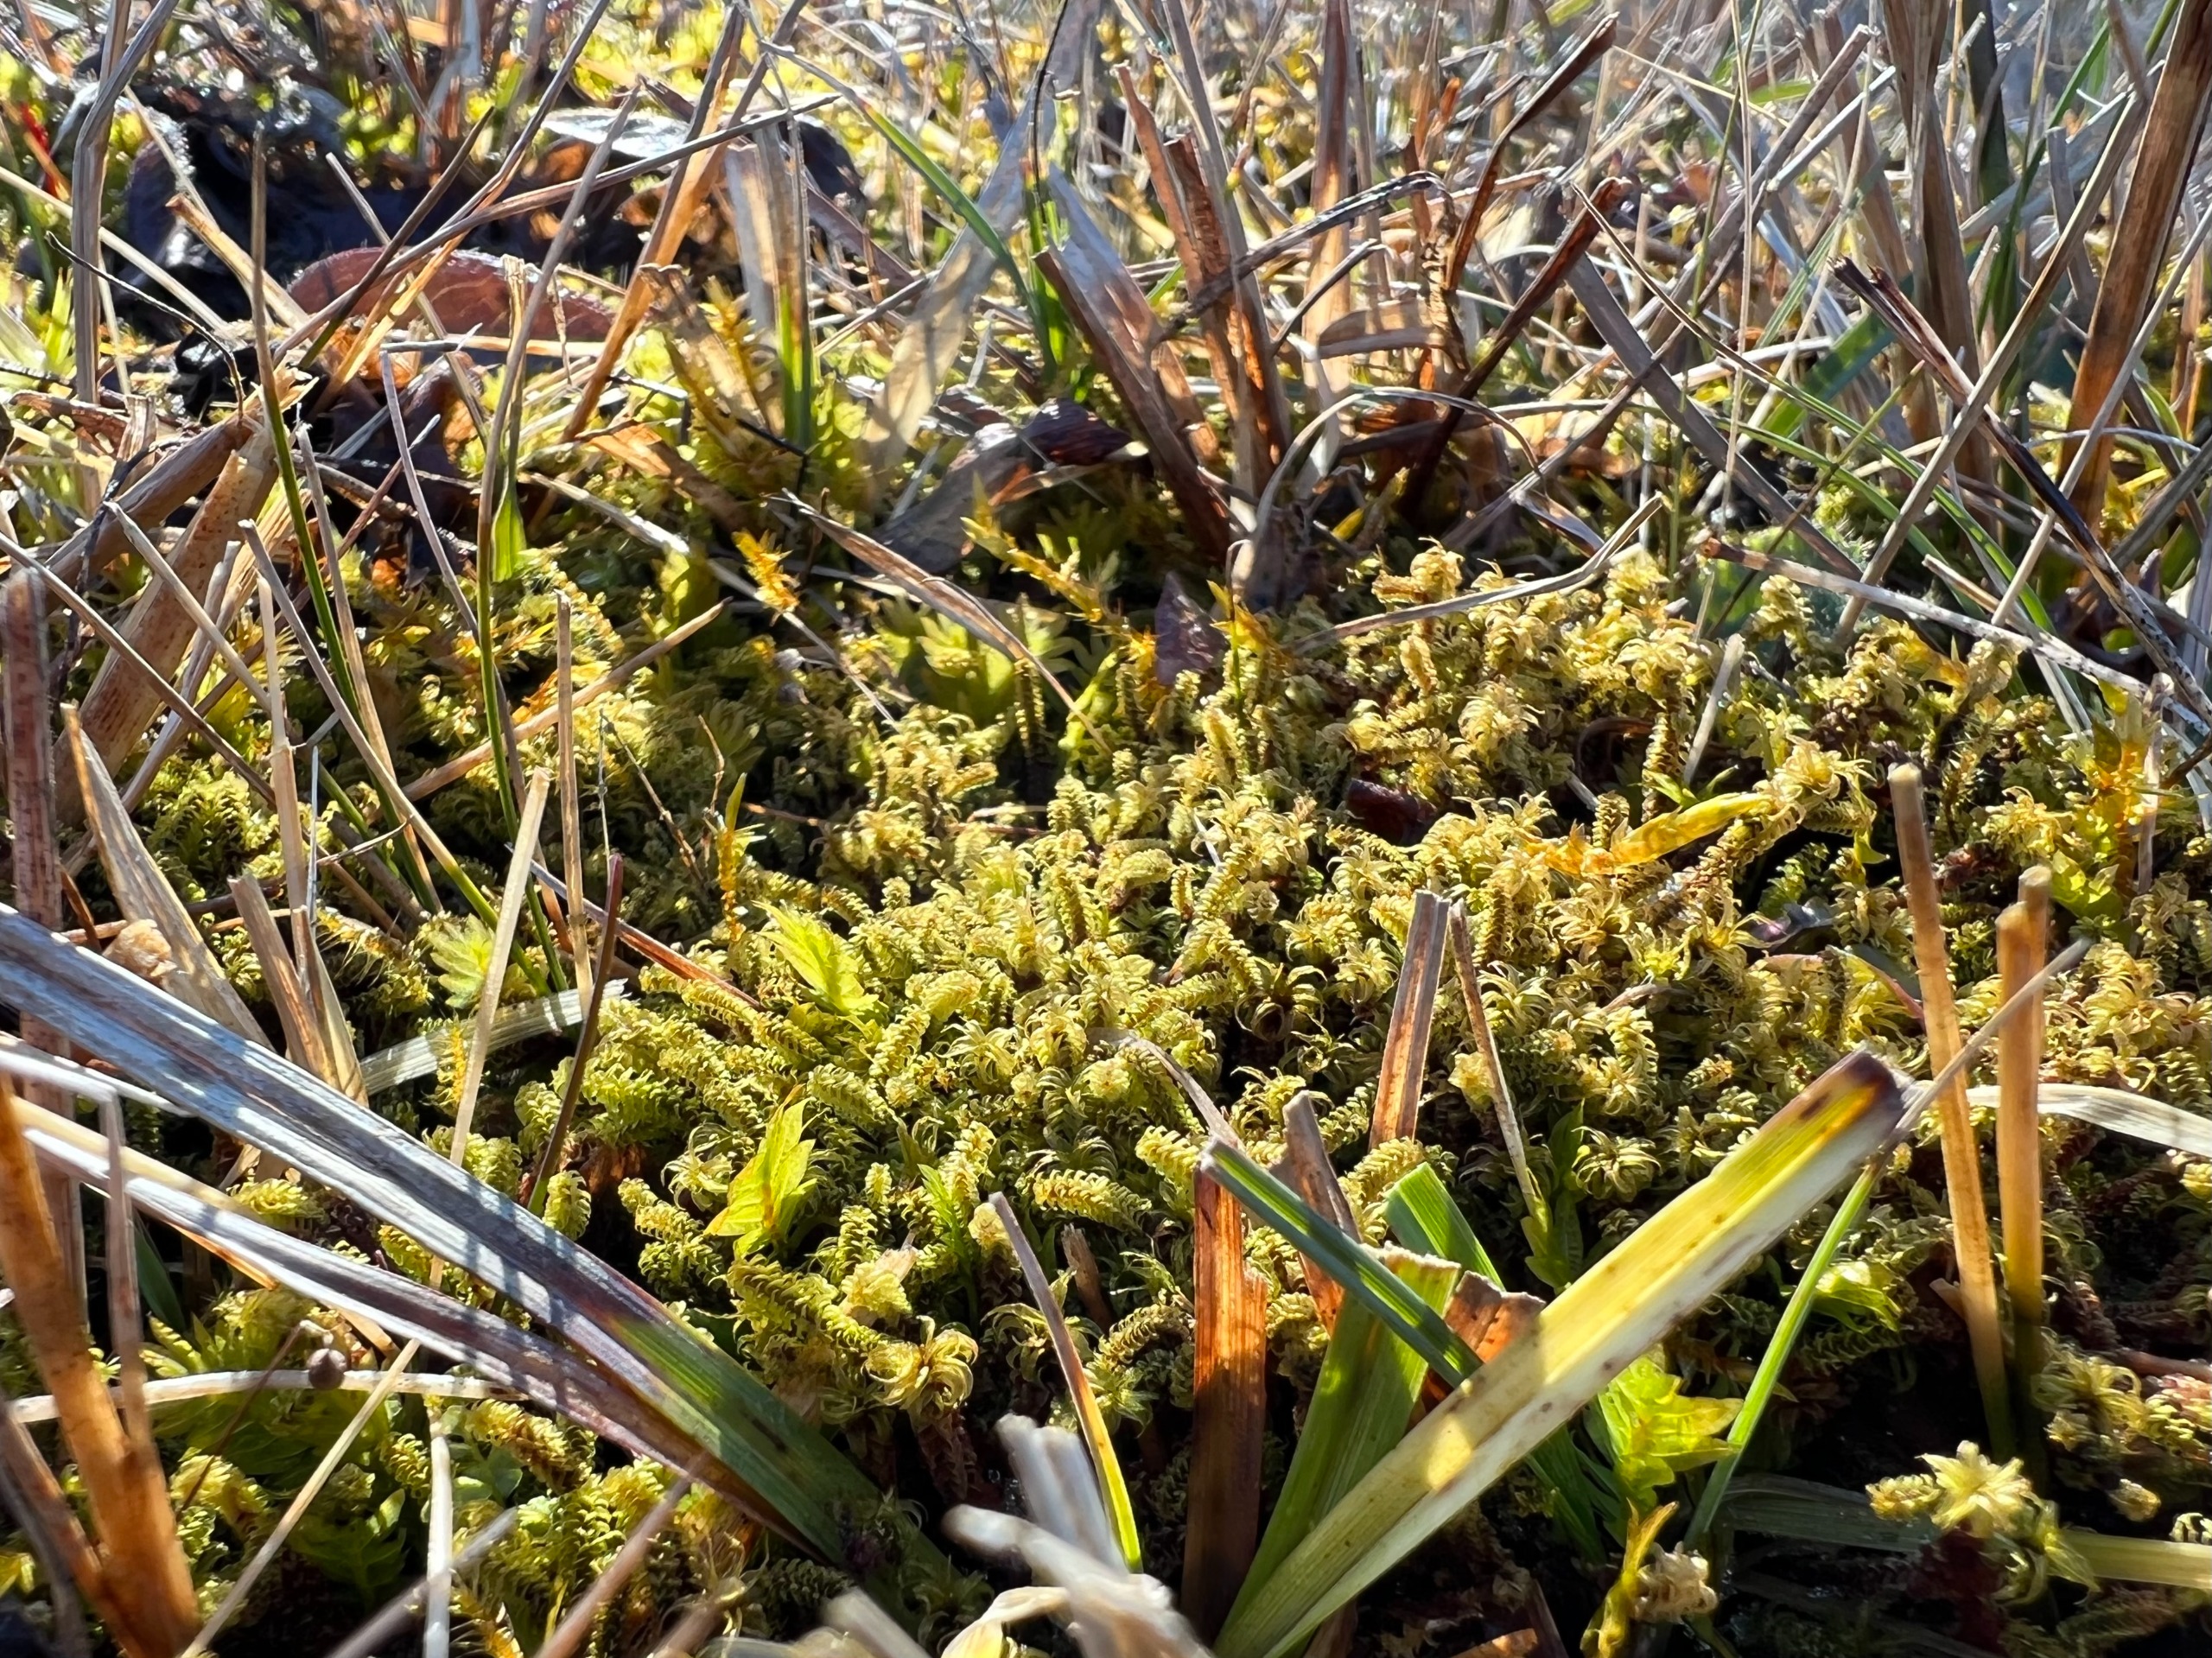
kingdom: Plantae
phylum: Bryophyta
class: Bryopsida
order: Splachnales
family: Meesiaceae
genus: Paludella
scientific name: Paludella squarrosa
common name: Almindelig piberensermos
